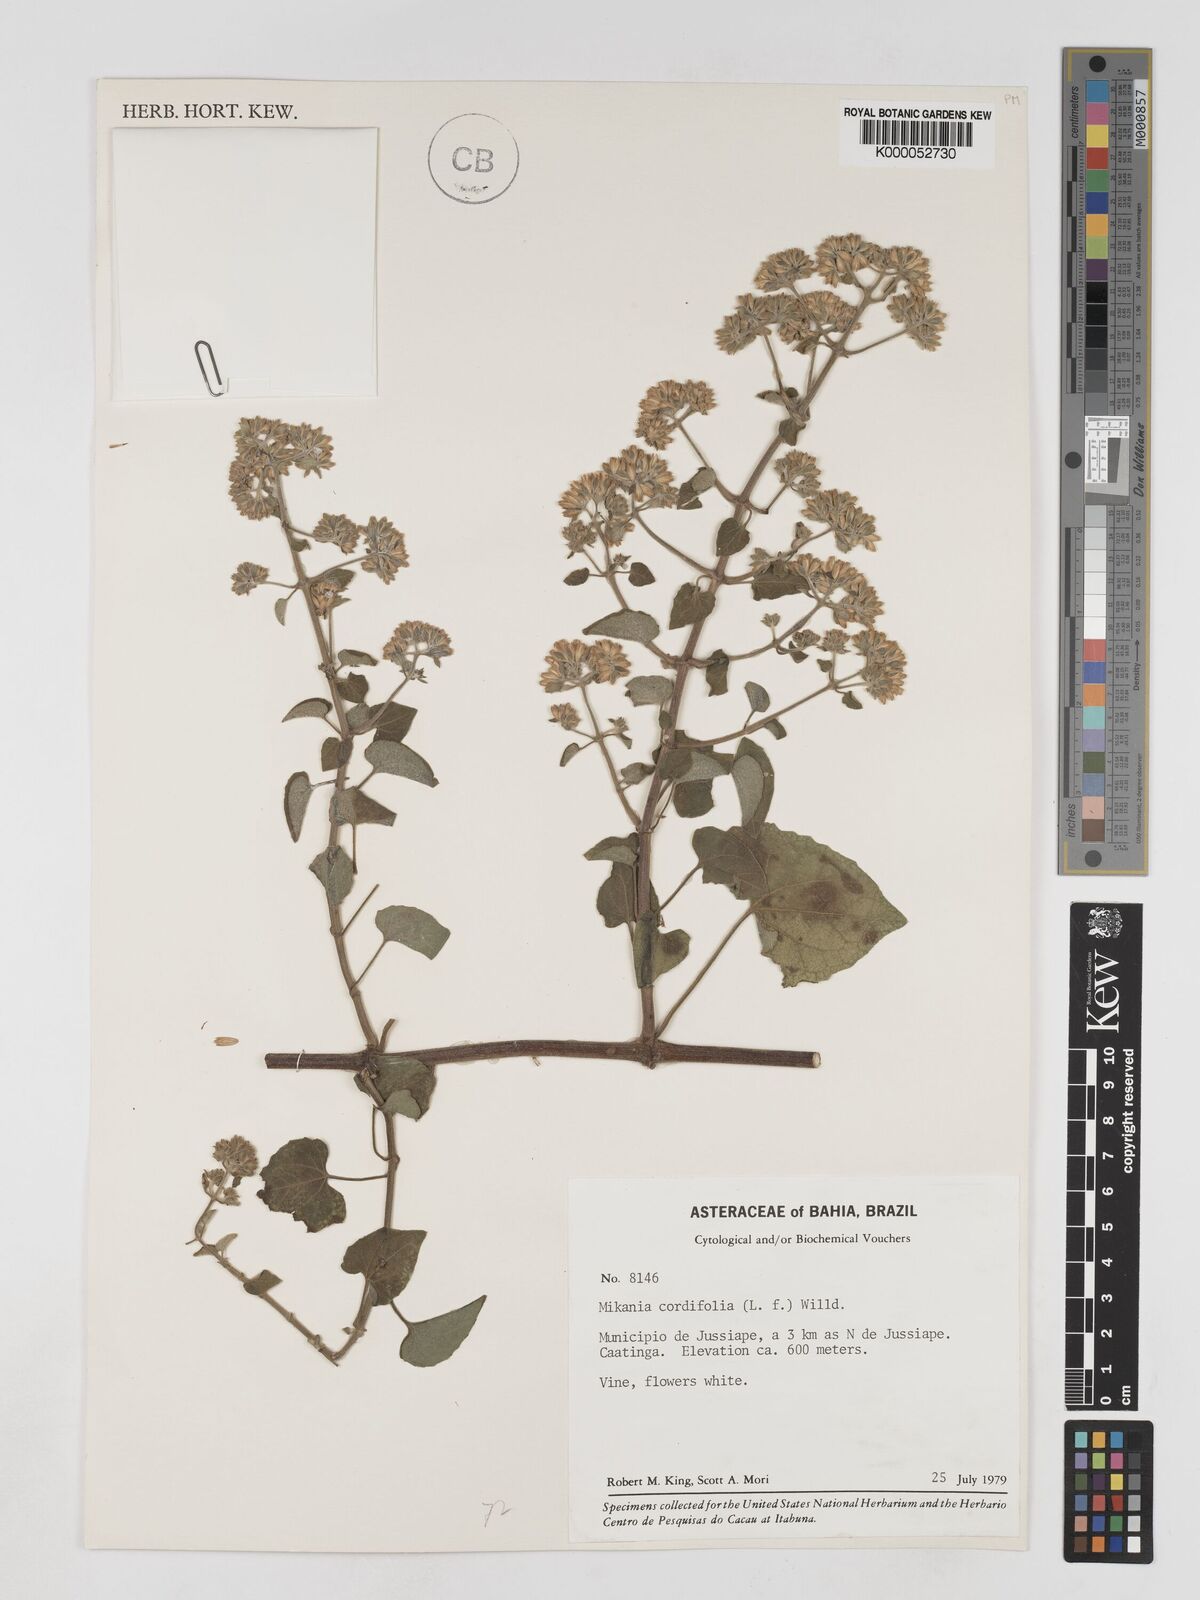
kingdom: Plantae
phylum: Tracheophyta
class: Magnoliopsida
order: Asterales
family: Asteraceae
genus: Mikania
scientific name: Mikania cordifolia
